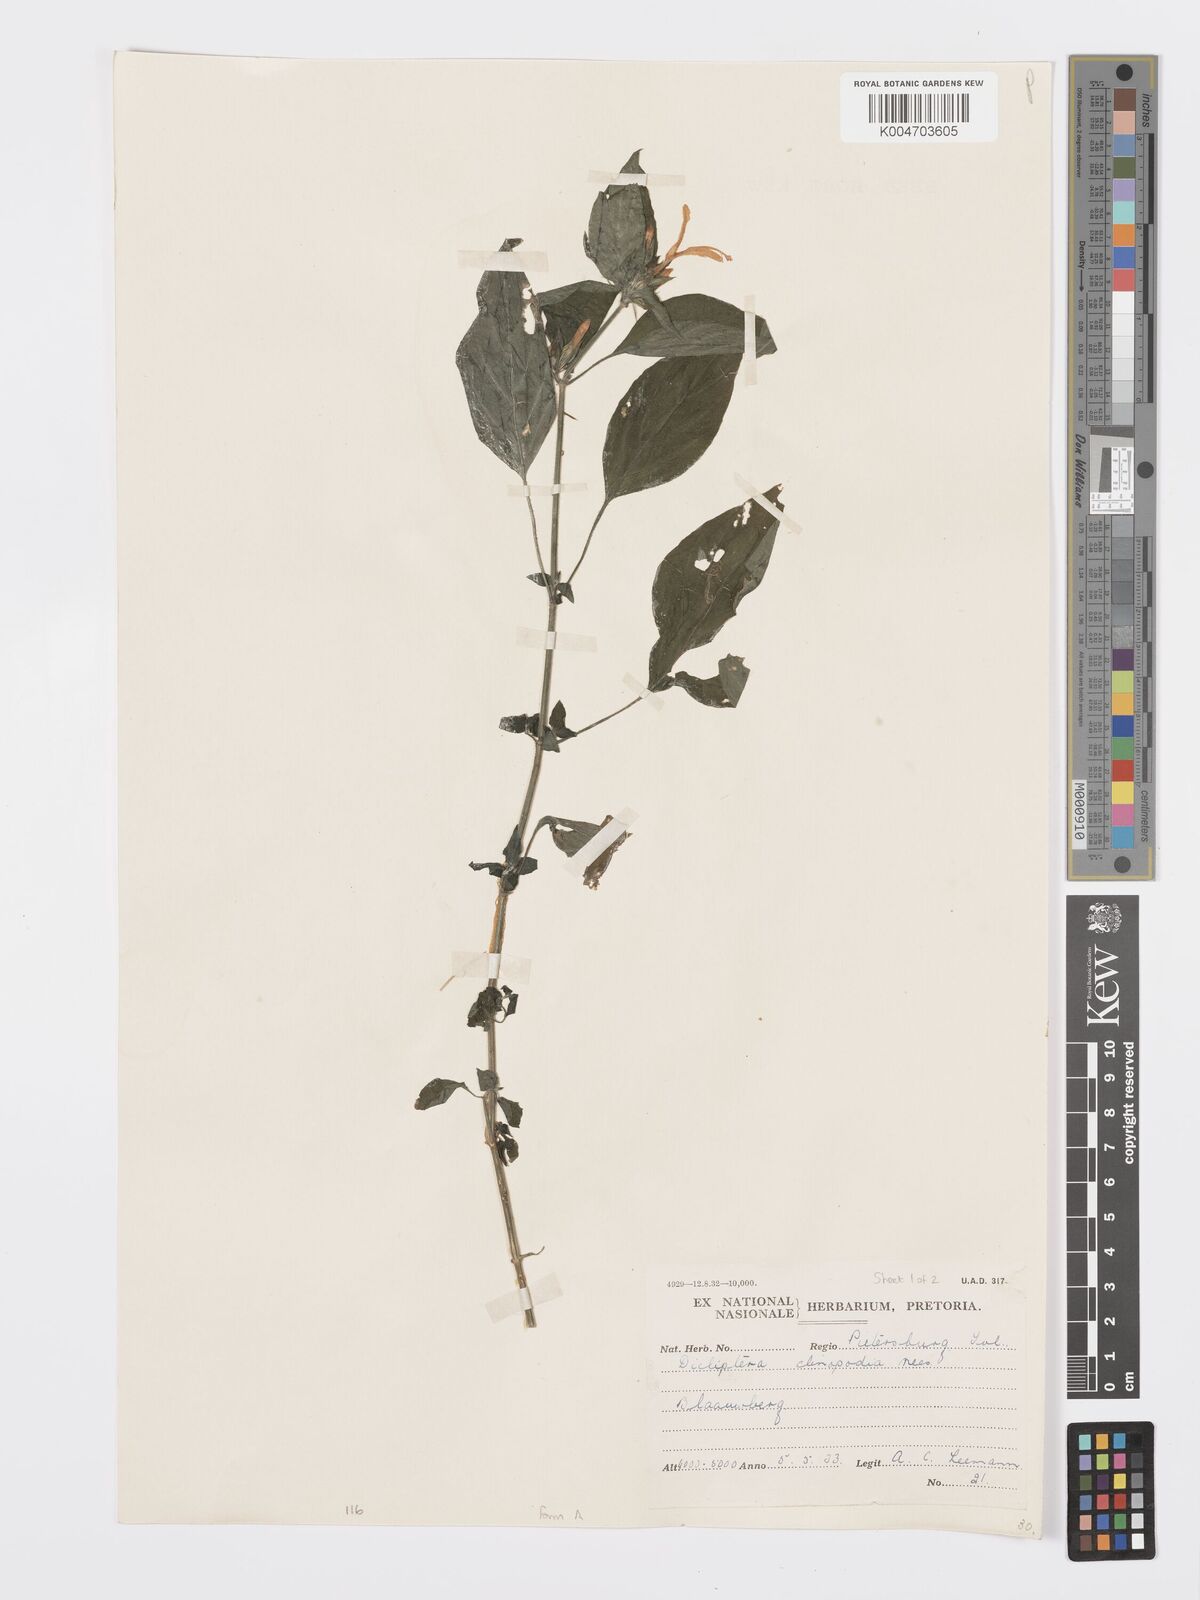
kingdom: Plantae
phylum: Tracheophyta
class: Magnoliopsida
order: Lamiales
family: Acanthaceae
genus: Dicliptera
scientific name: Dicliptera clinopodia
